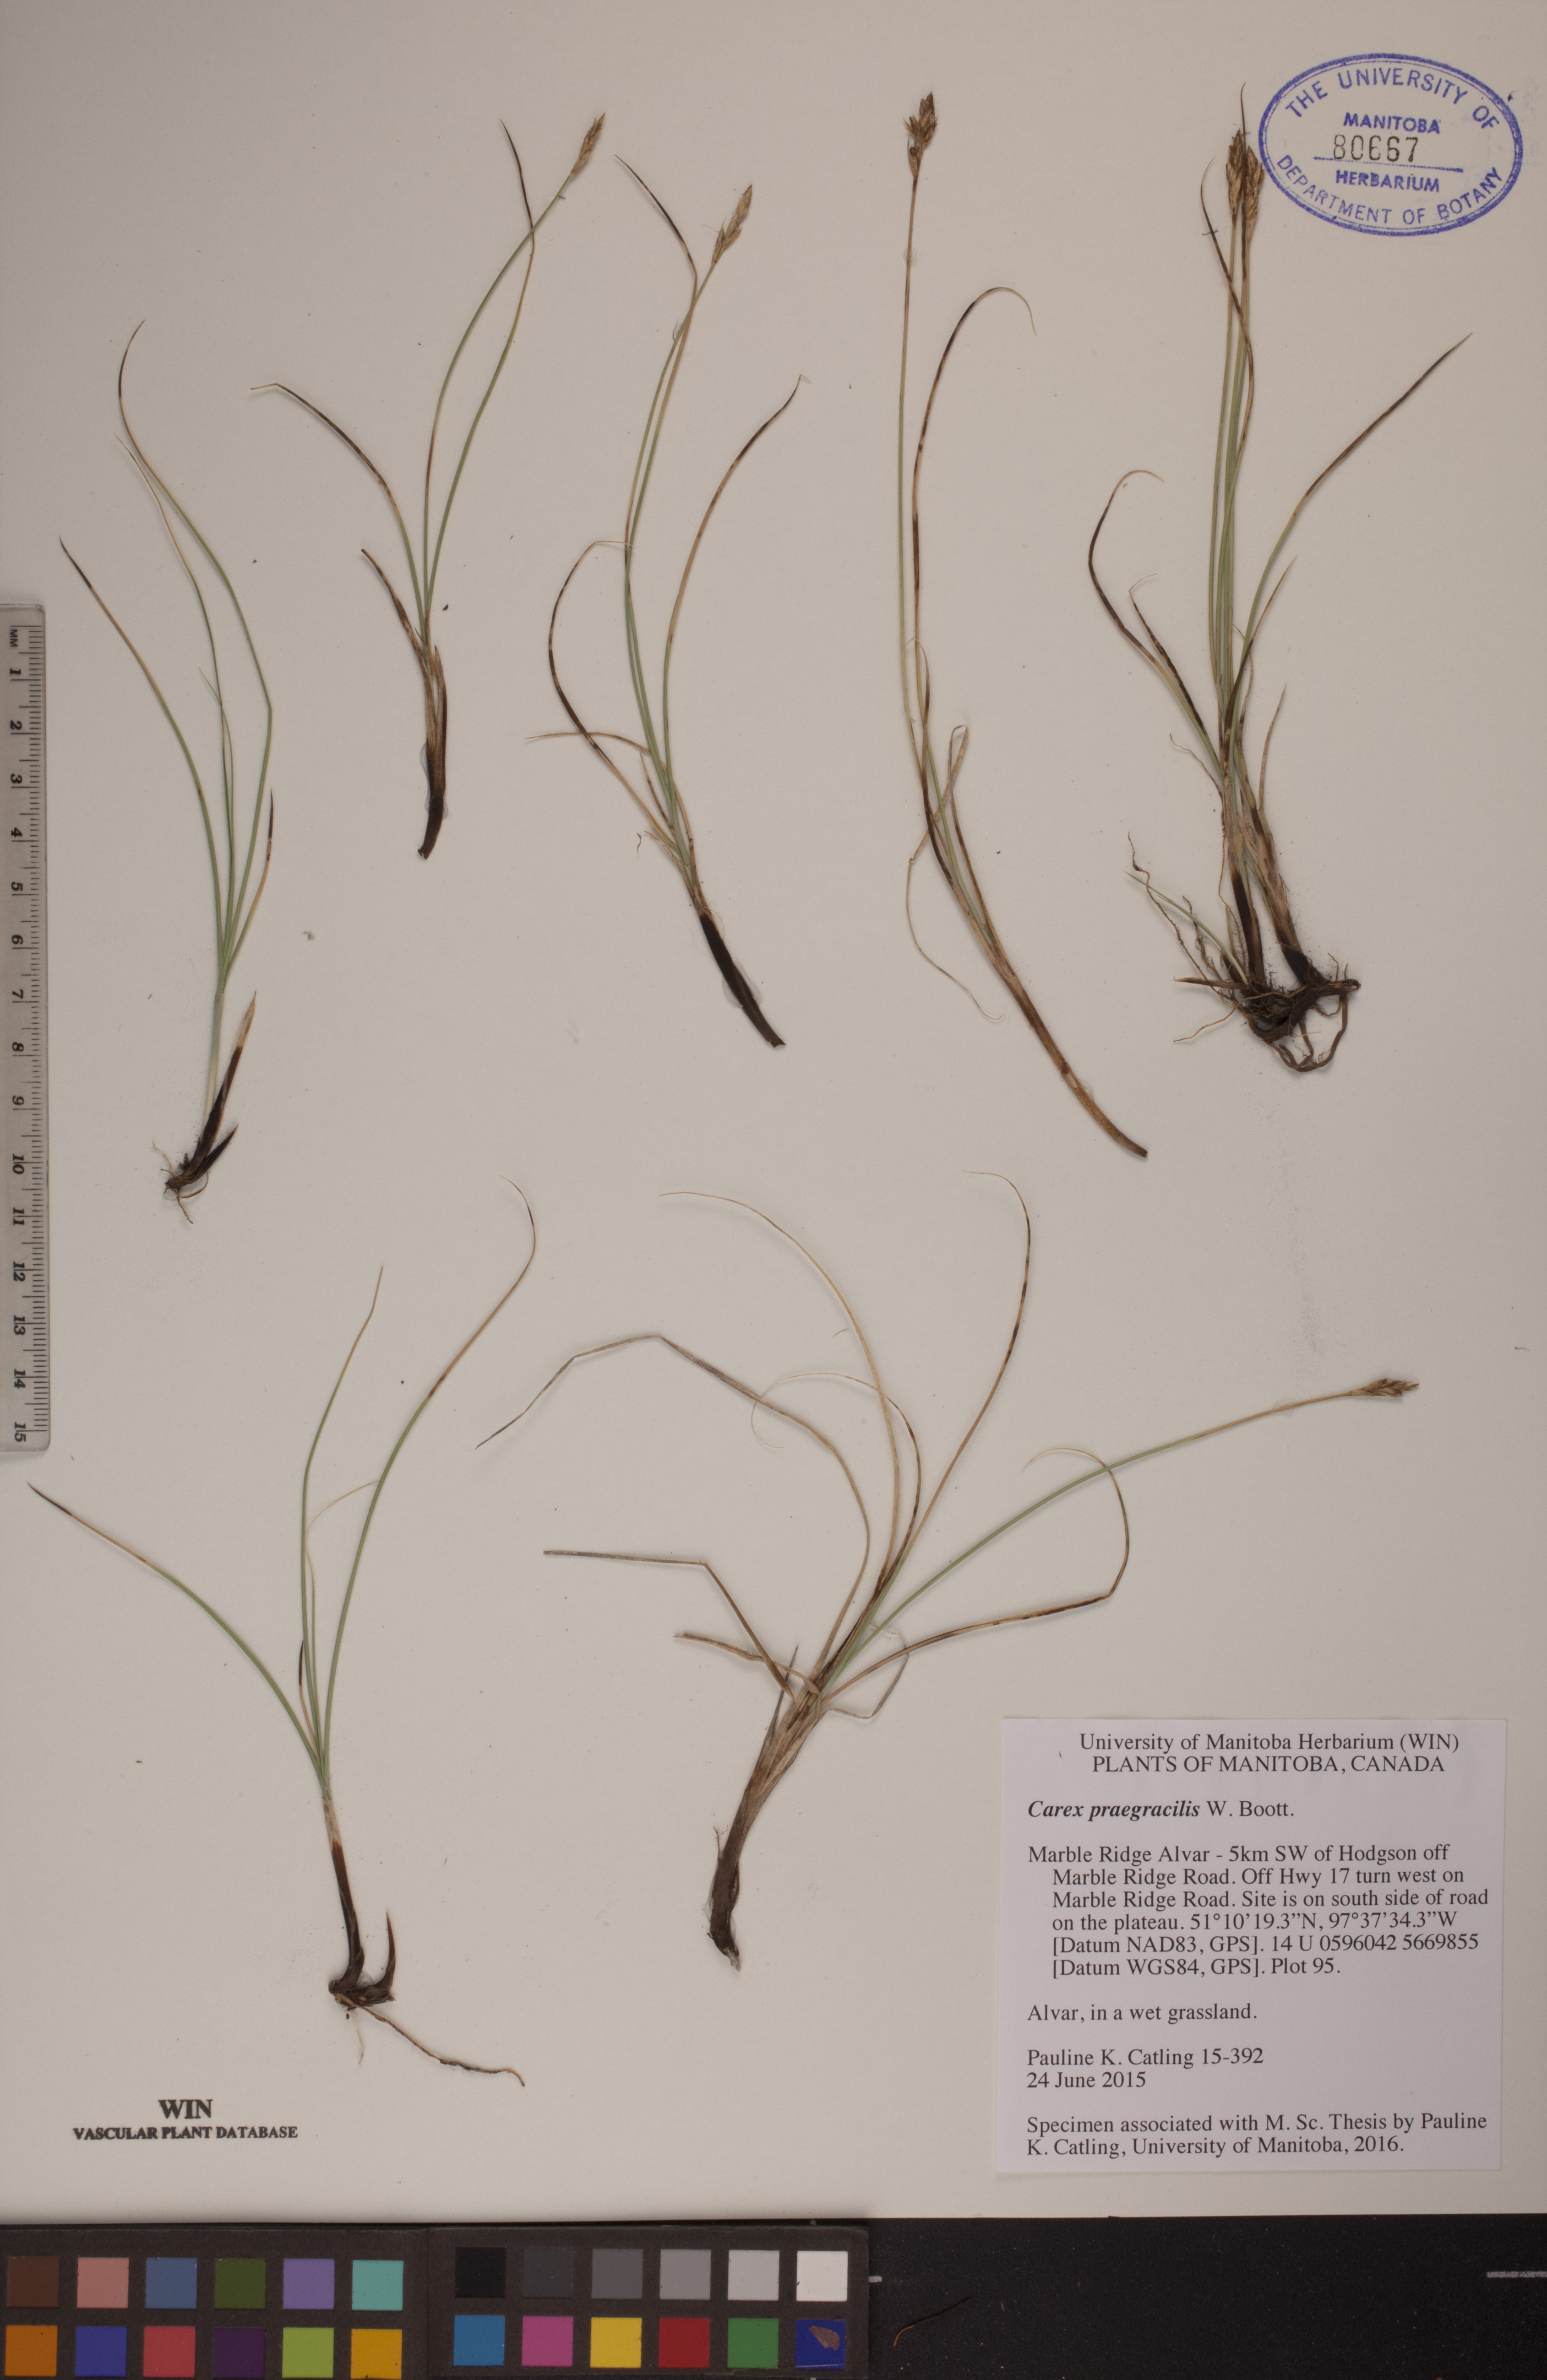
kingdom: Plantae
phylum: Tracheophyta
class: Liliopsida
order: Poales
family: Cyperaceae
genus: Carex
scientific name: Carex praegracilis
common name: Black creeper sedge
